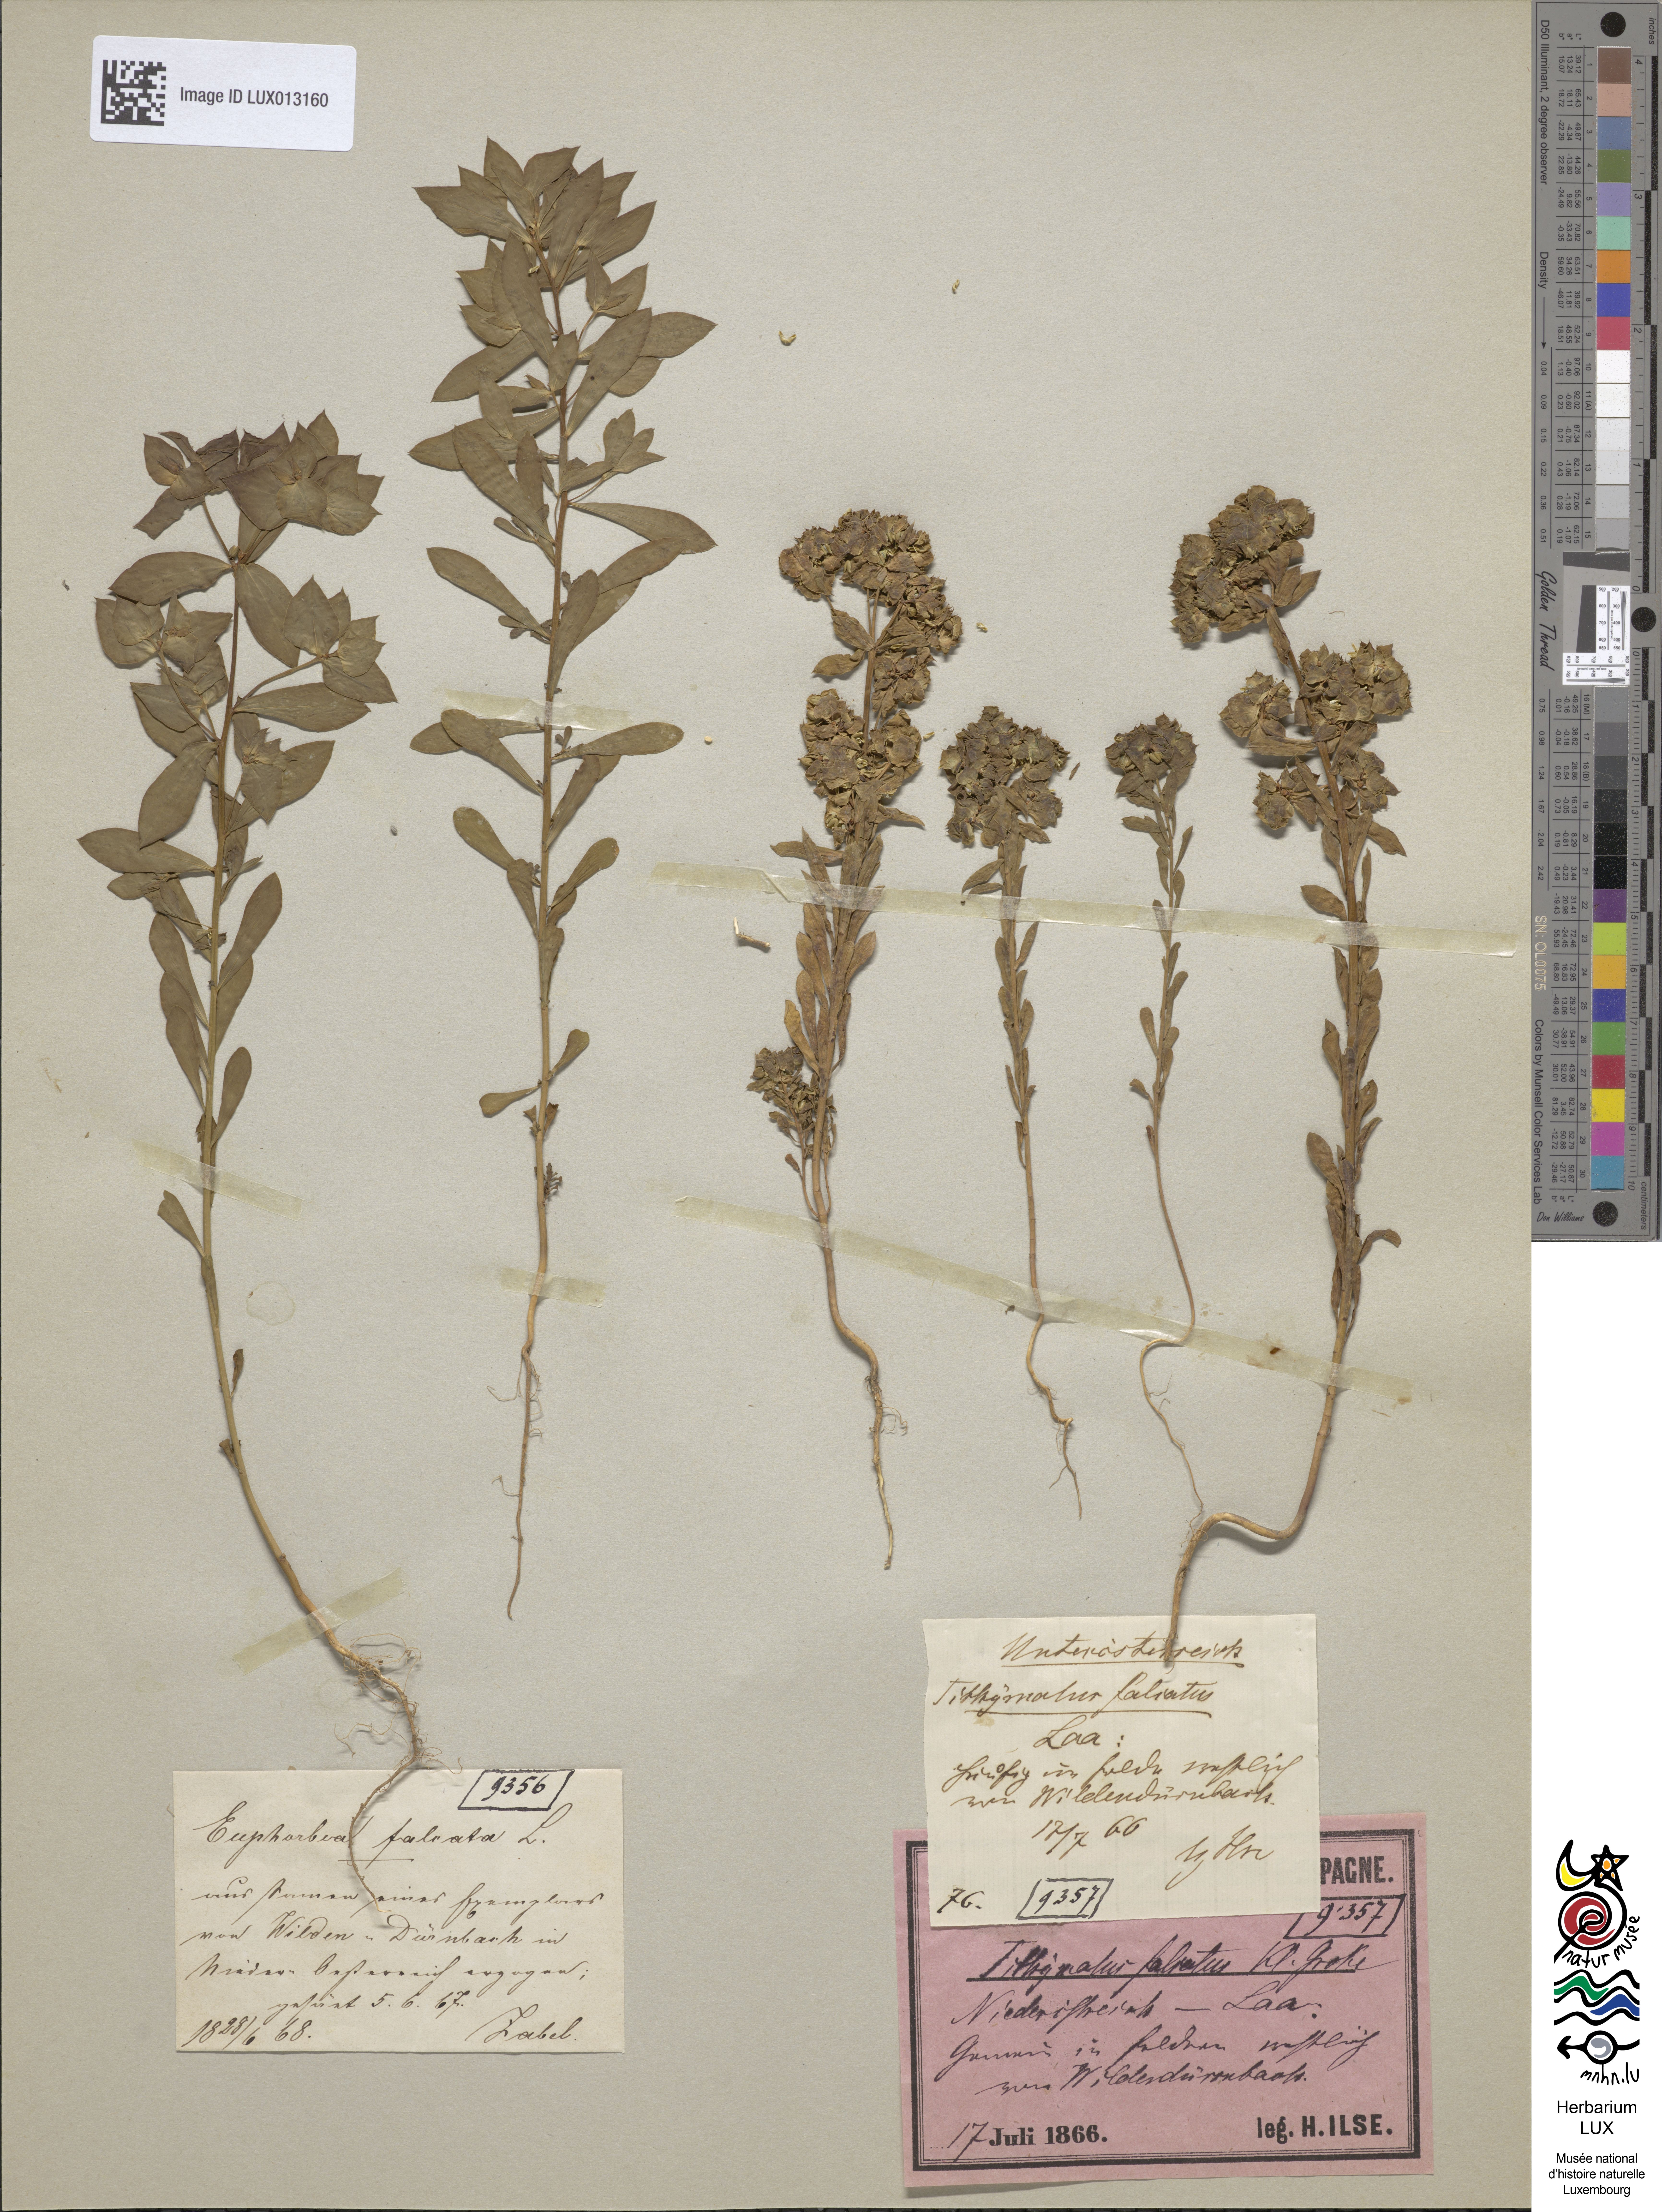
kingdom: Plantae
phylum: Tracheophyta
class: Magnoliopsida
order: Malpighiales
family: Euphorbiaceae
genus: Euphorbia
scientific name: Euphorbia falcata
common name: Sickle spurge
